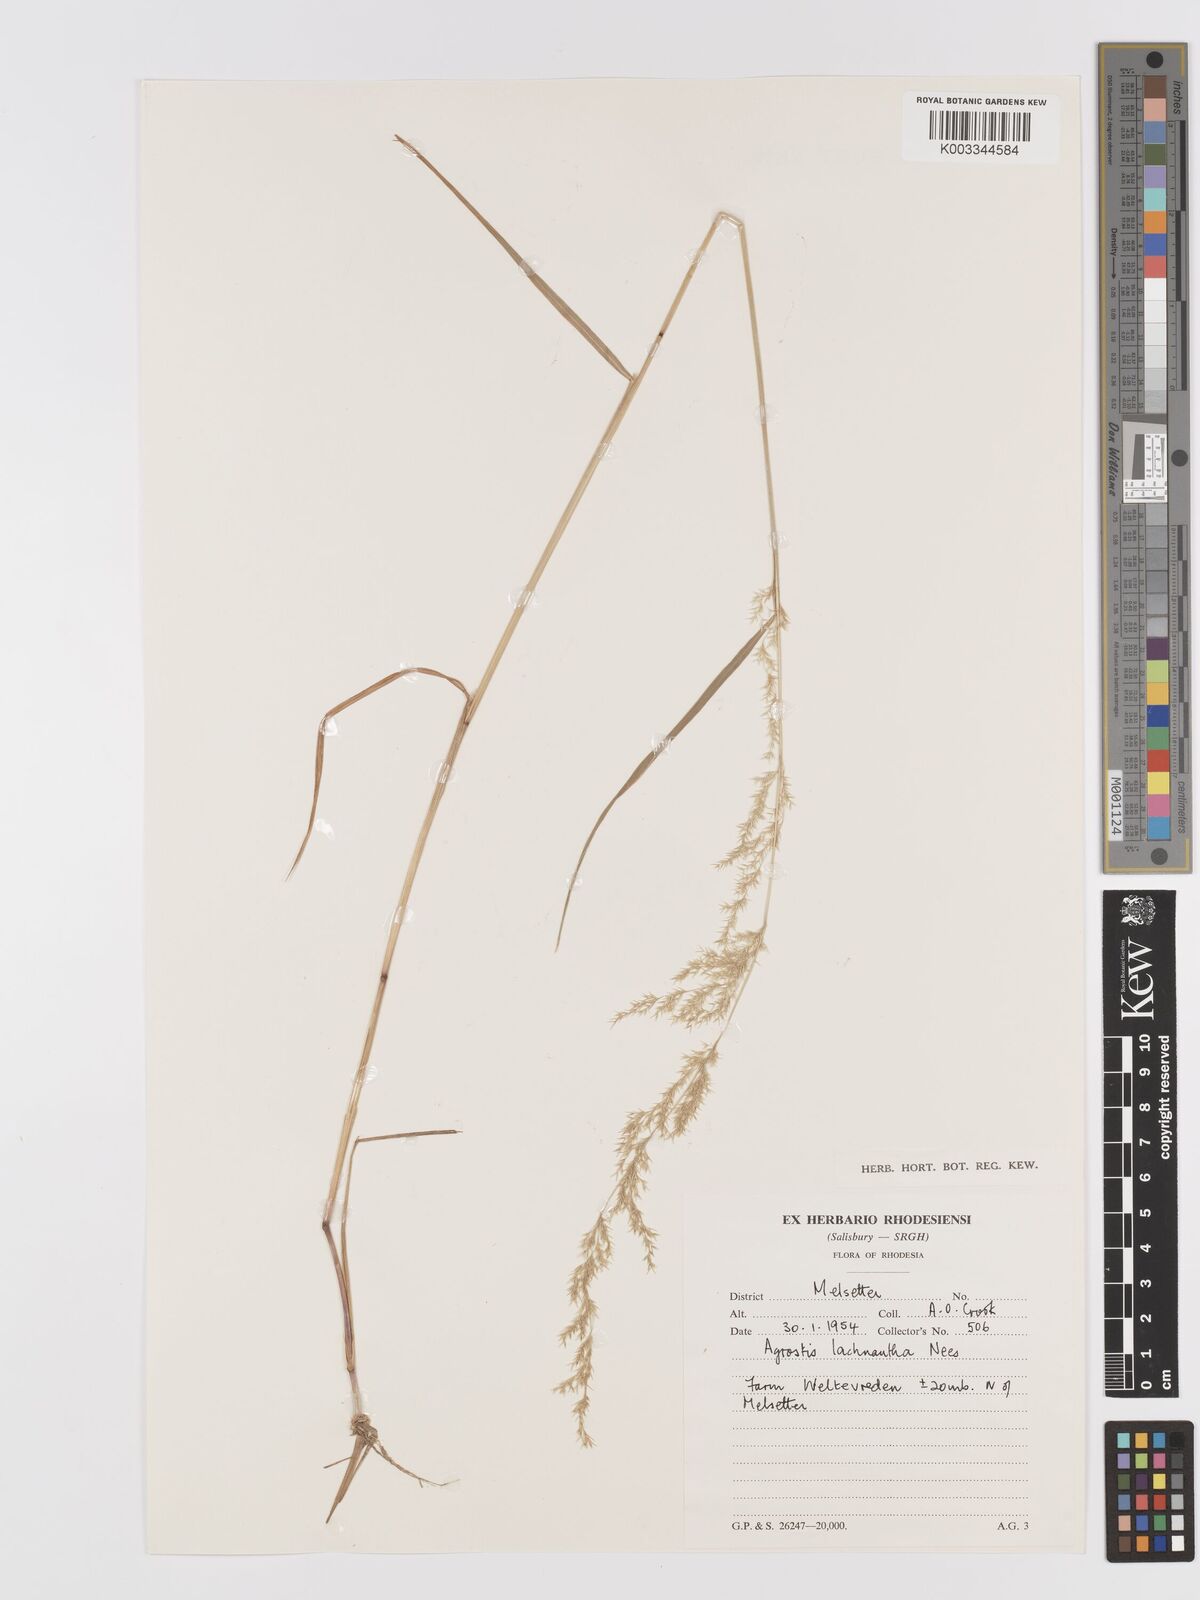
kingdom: Plantae
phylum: Tracheophyta
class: Liliopsida
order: Poales
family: Poaceae
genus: Lachnagrostis
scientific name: Lachnagrostis lachnantha
